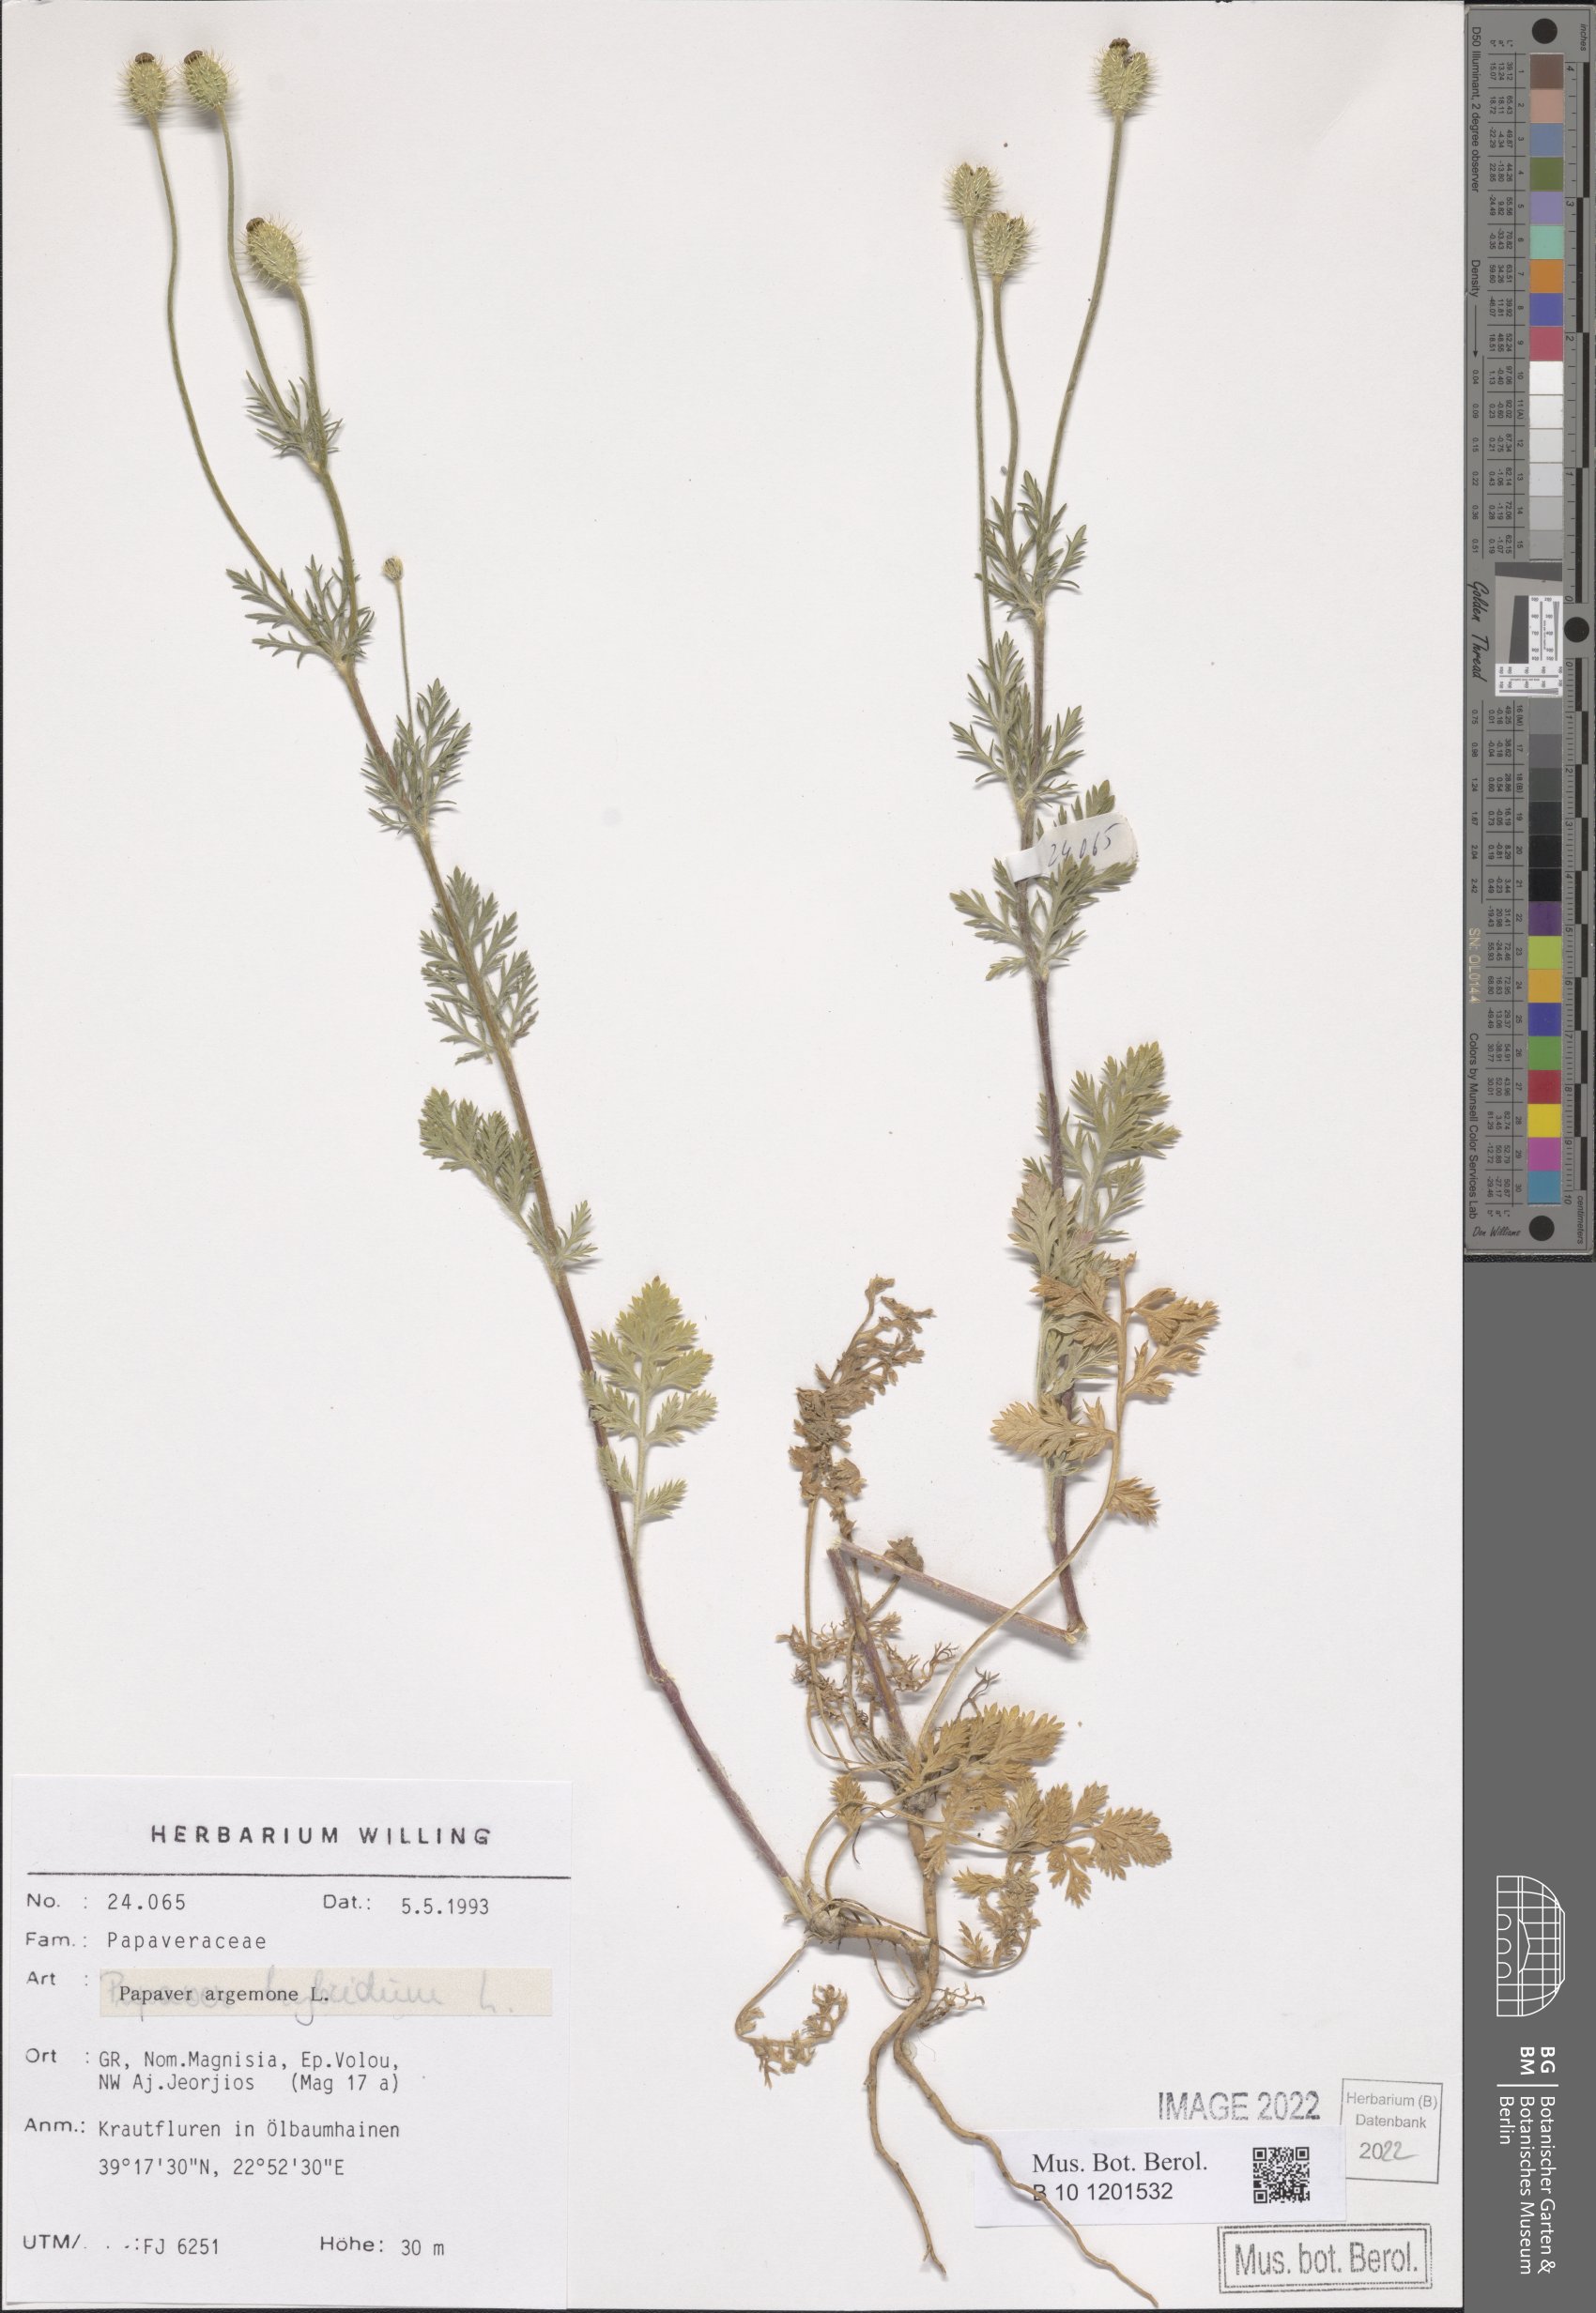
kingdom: Plantae
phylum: Tracheophyta
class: Magnoliopsida
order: Ranunculales
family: Papaveraceae
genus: Roemeria
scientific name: Roemeria argemone
